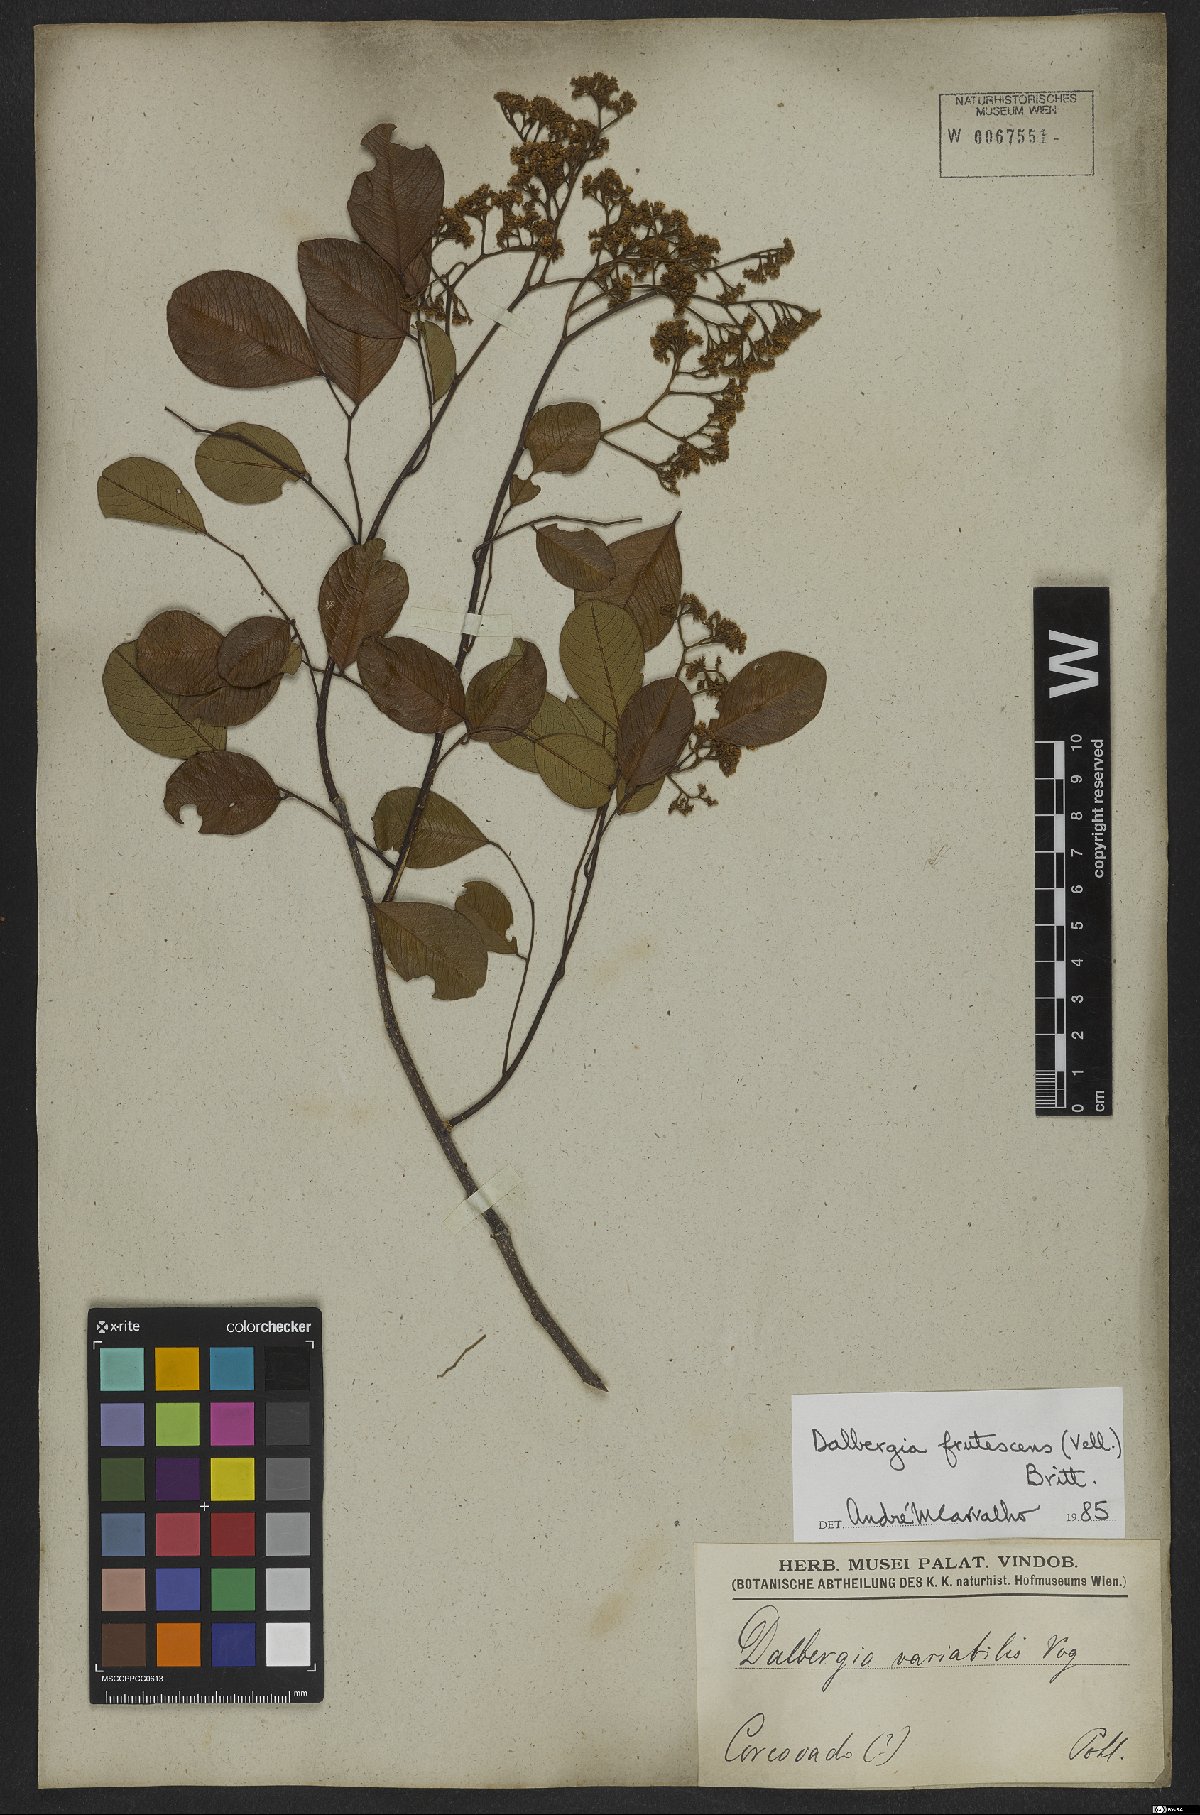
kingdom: Plantae
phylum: Tracheophyta
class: Magnoliopsida
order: Fabales
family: Fabaceae
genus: Dalbergia
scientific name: Dalbergia frutescens
